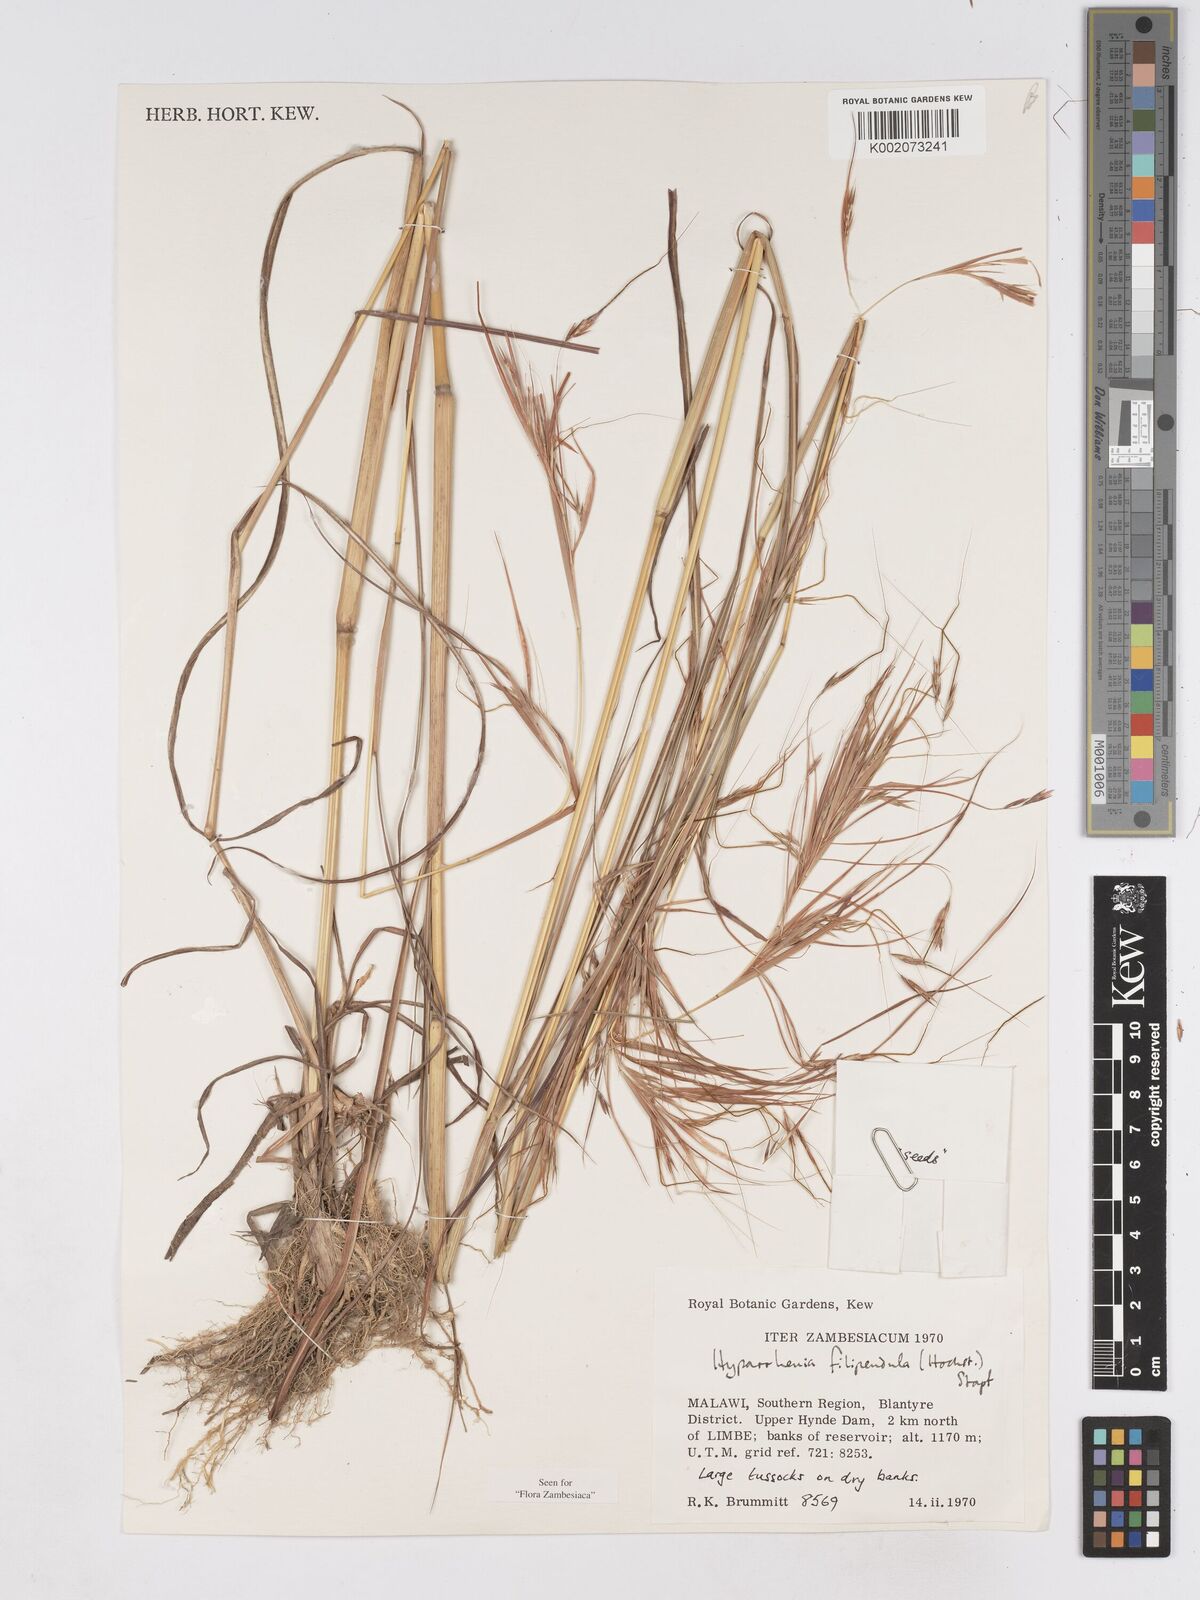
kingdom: Plantae
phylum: Tracheophyta
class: Liliopsida
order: Poales
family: Poaceae
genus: Hyparrhenia
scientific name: Hyparrhenia filipendula
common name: Tambookie grass
